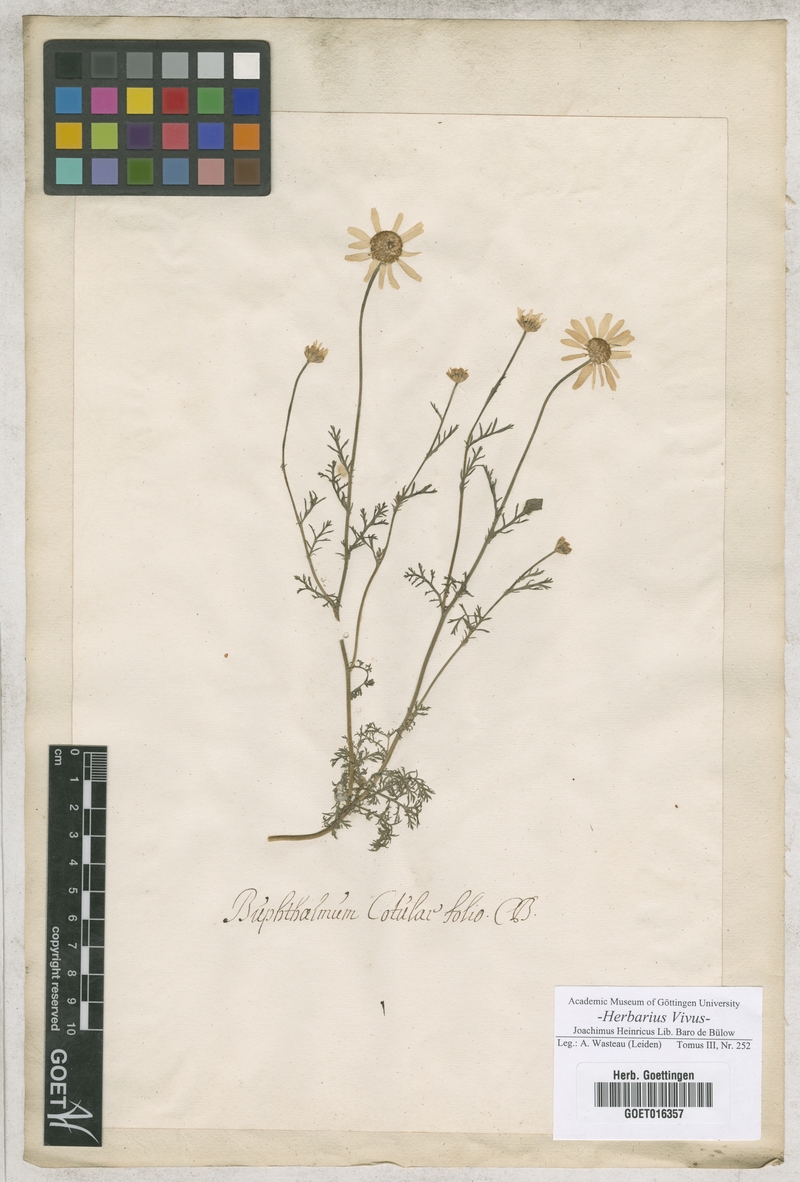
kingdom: Plantae
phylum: Tracheophyta
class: Magnoliopsida
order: Asterales
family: Asteraceae
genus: Anacyclus
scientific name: Anacyclus radiatus
